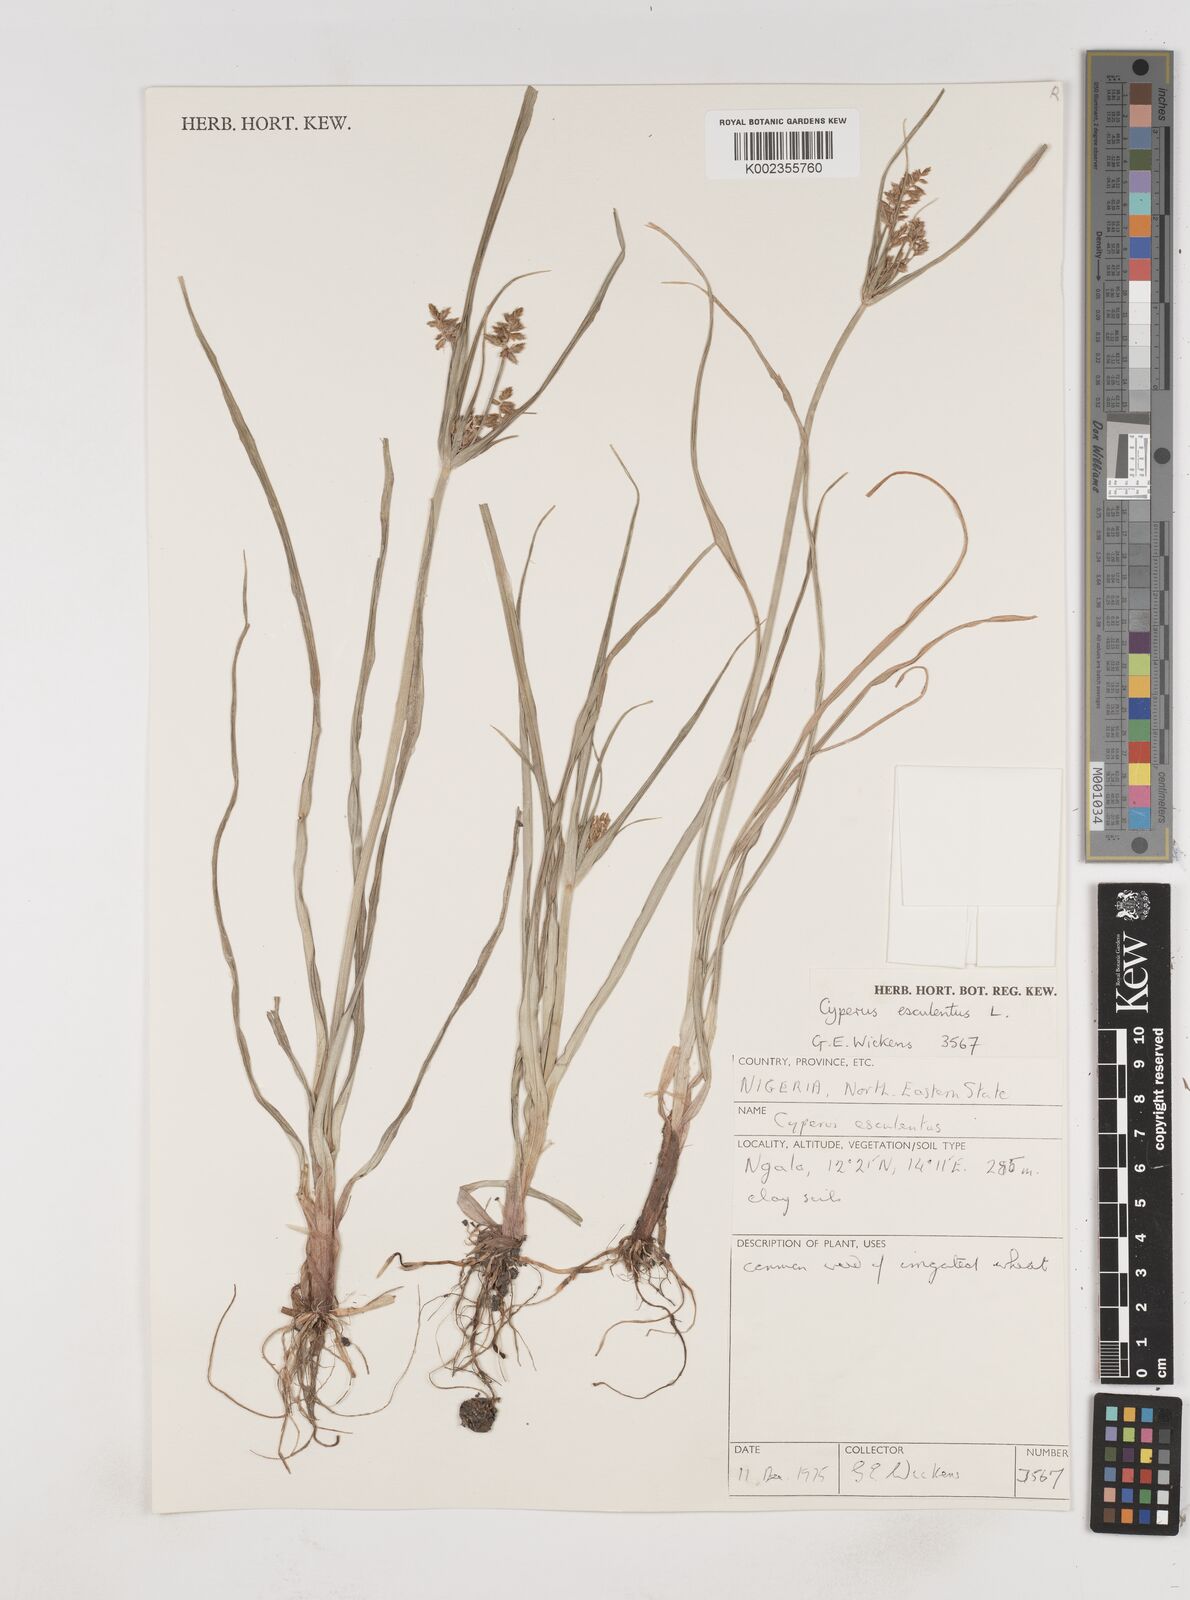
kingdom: Plantae
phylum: Tracheophyta
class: Liliopsida
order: Poales
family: Cyperaceae
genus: Cyperus
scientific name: Cyperus esculentus
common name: Yellow nutsedge
